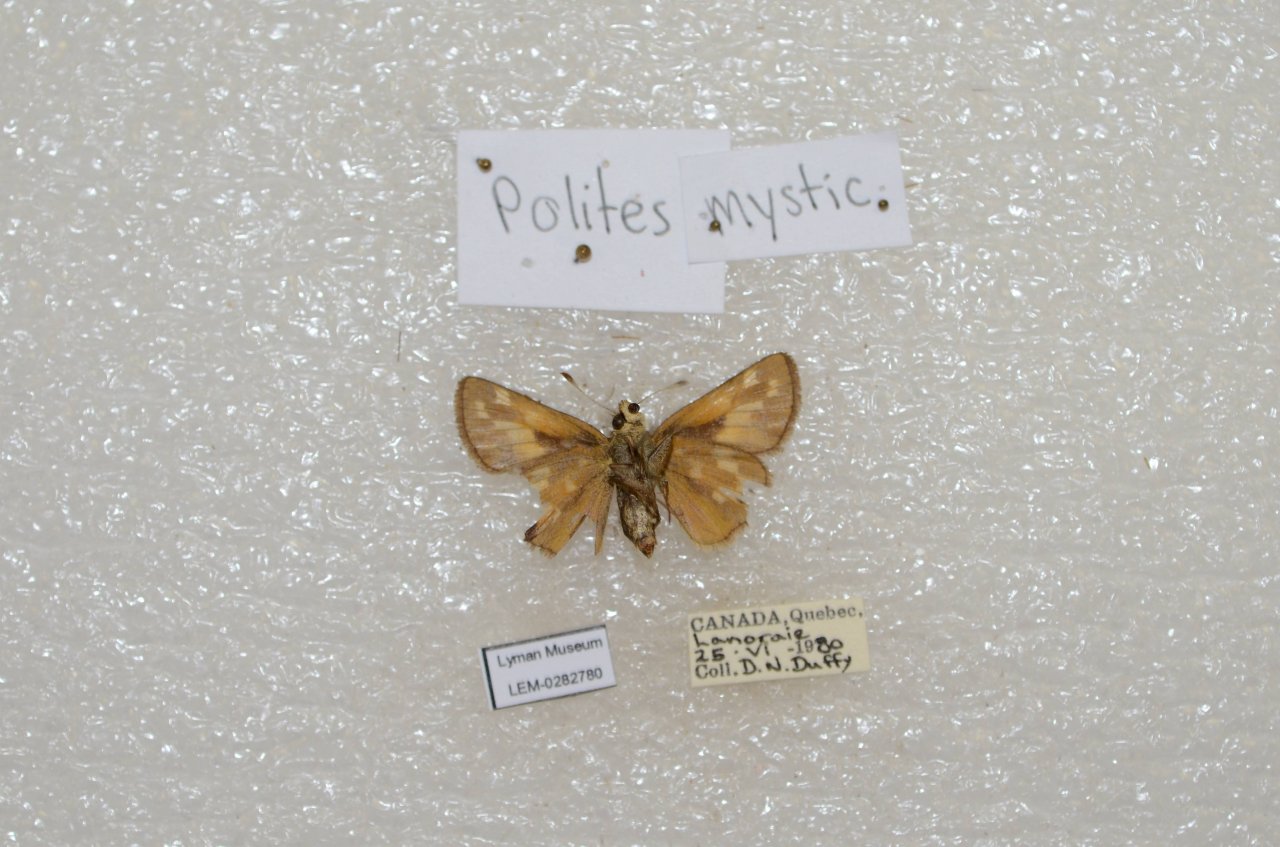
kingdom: Animalia
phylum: Arthropoda
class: Insecta
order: Lepidoptera
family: Hesperiidae
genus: Polites
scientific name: Polites
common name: Long Dash Skipper
